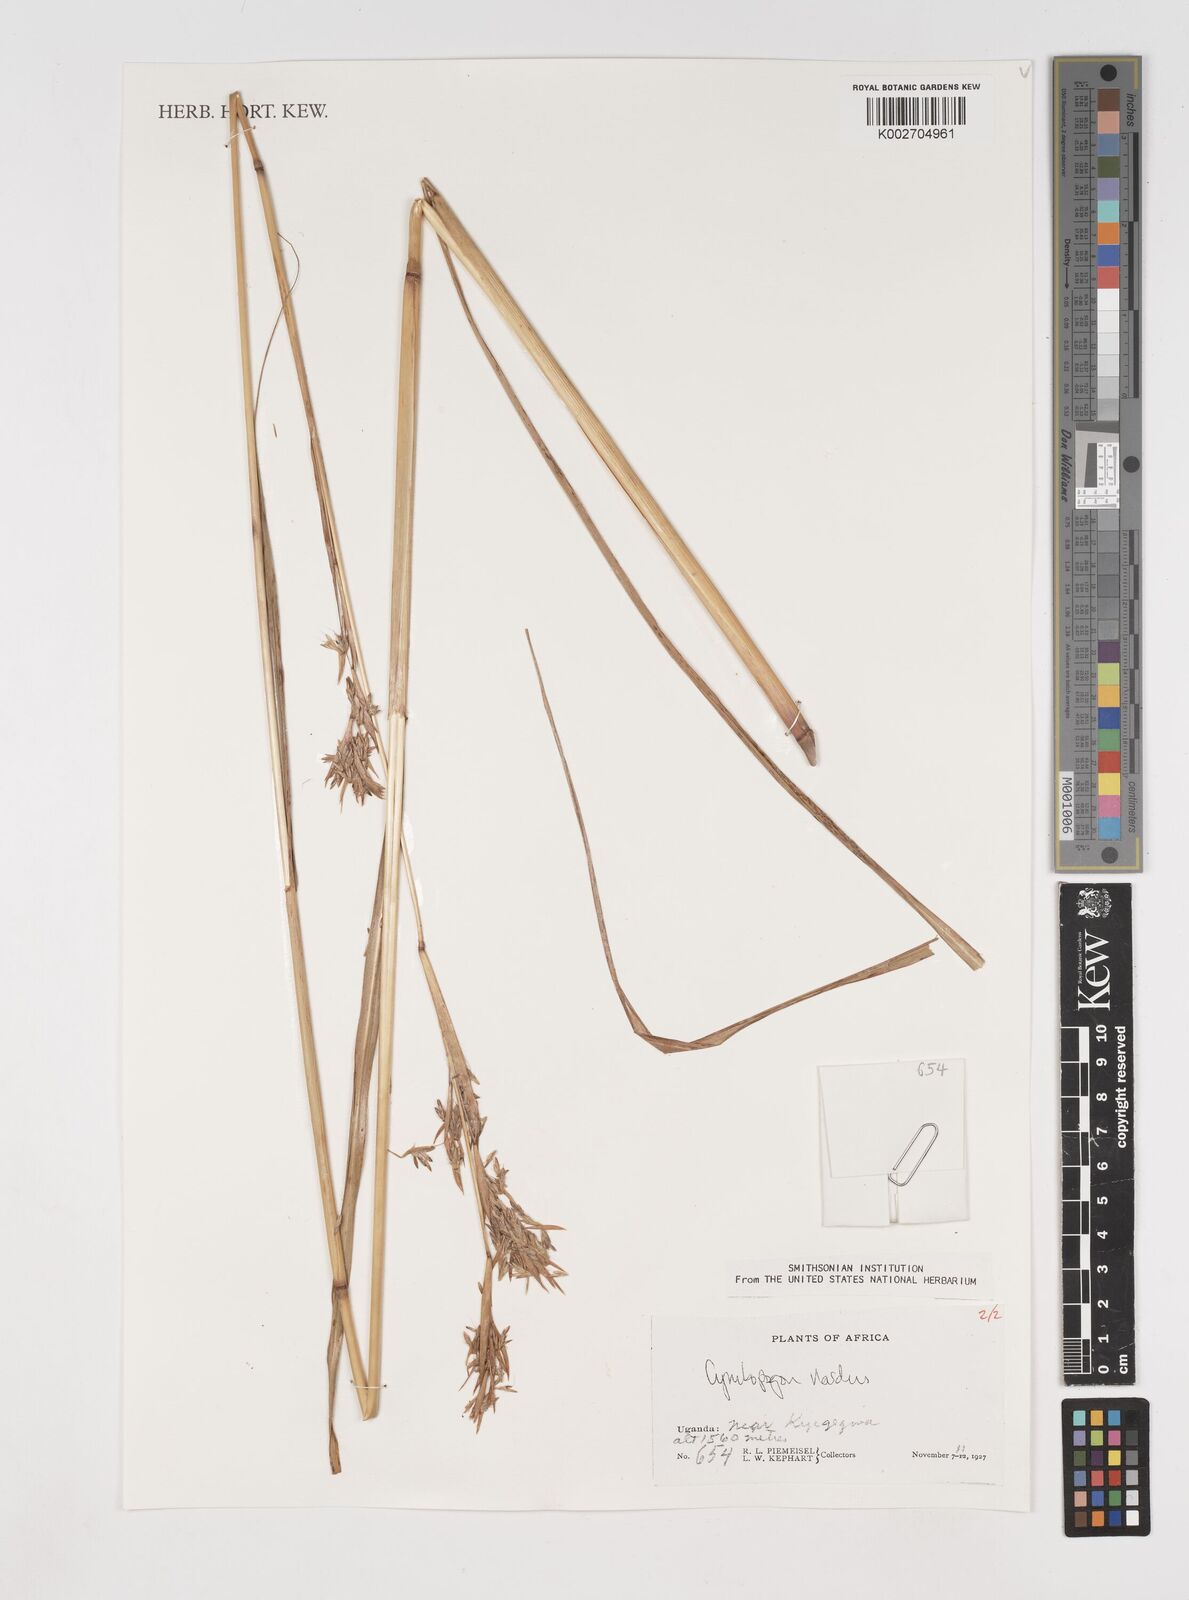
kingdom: Plantae
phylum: Tracheophyta
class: Liliopsida
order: Poales
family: Poaceae
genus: Cymbopogon
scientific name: Cymbopogon nardus
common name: Giant turpentine grass
